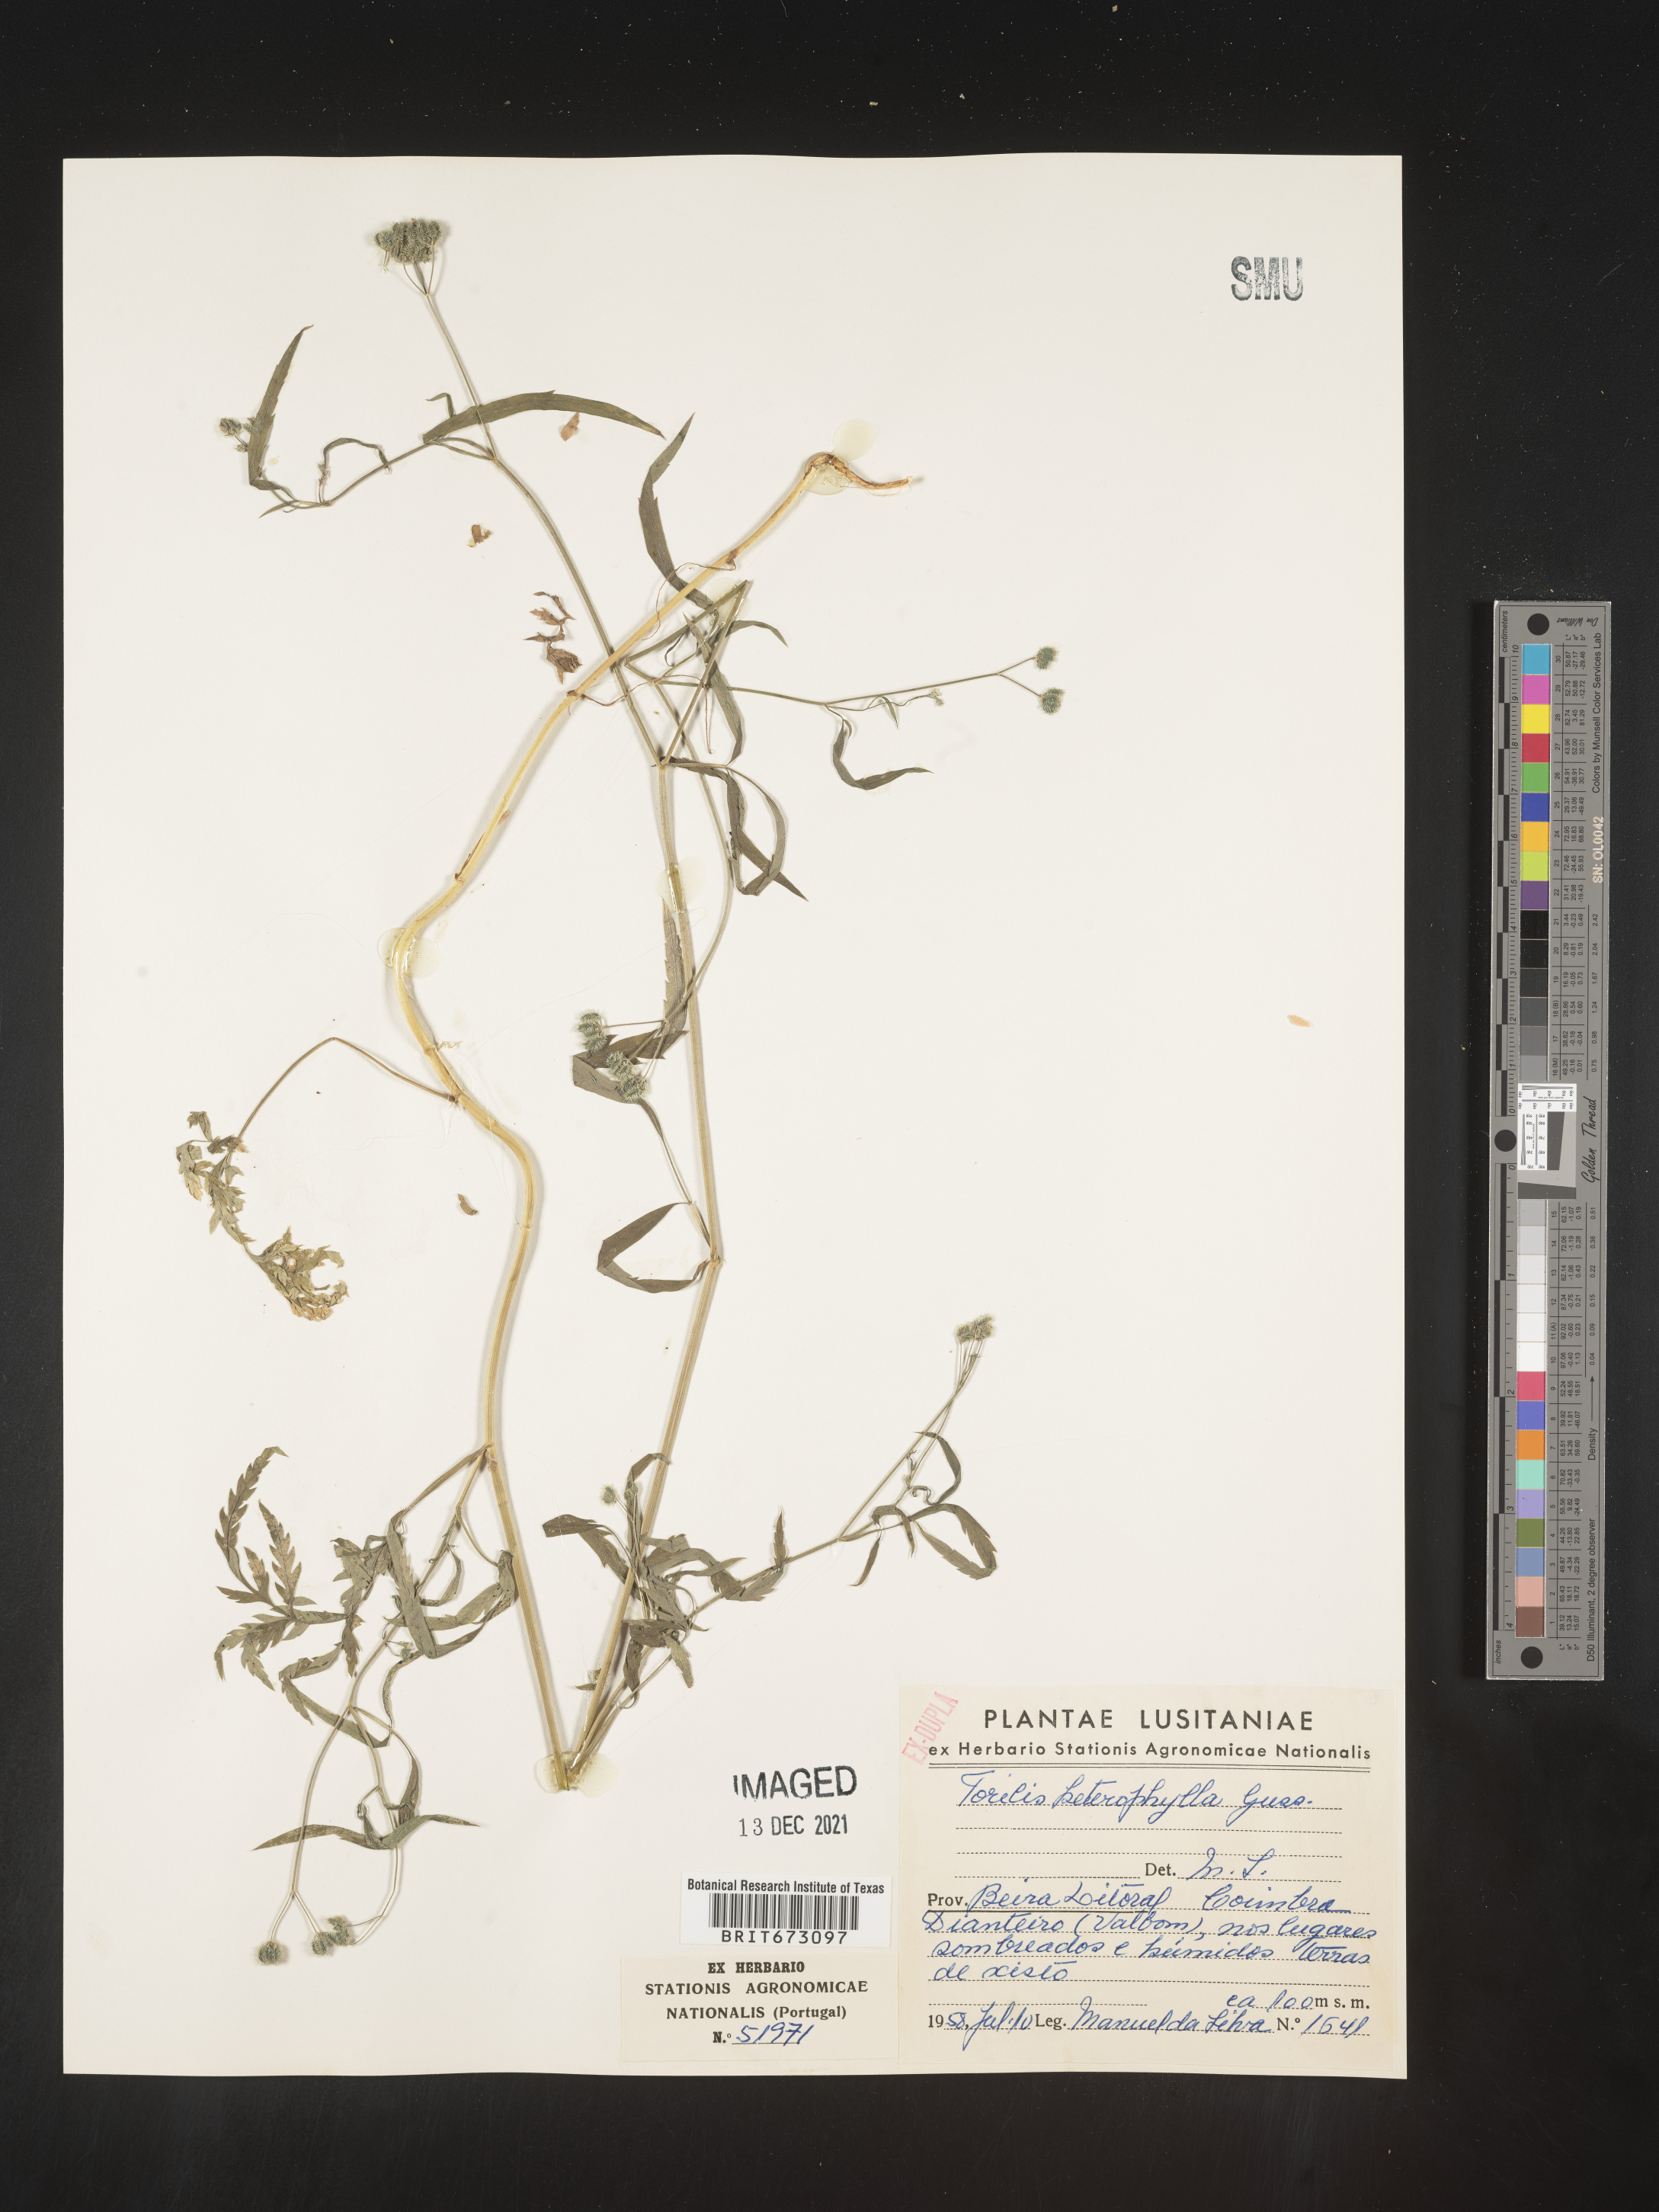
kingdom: Plantae
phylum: Tracheophyta
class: Magnoliopsida
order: Apiales
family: Apiaceae
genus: Torilis
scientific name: Torilis
